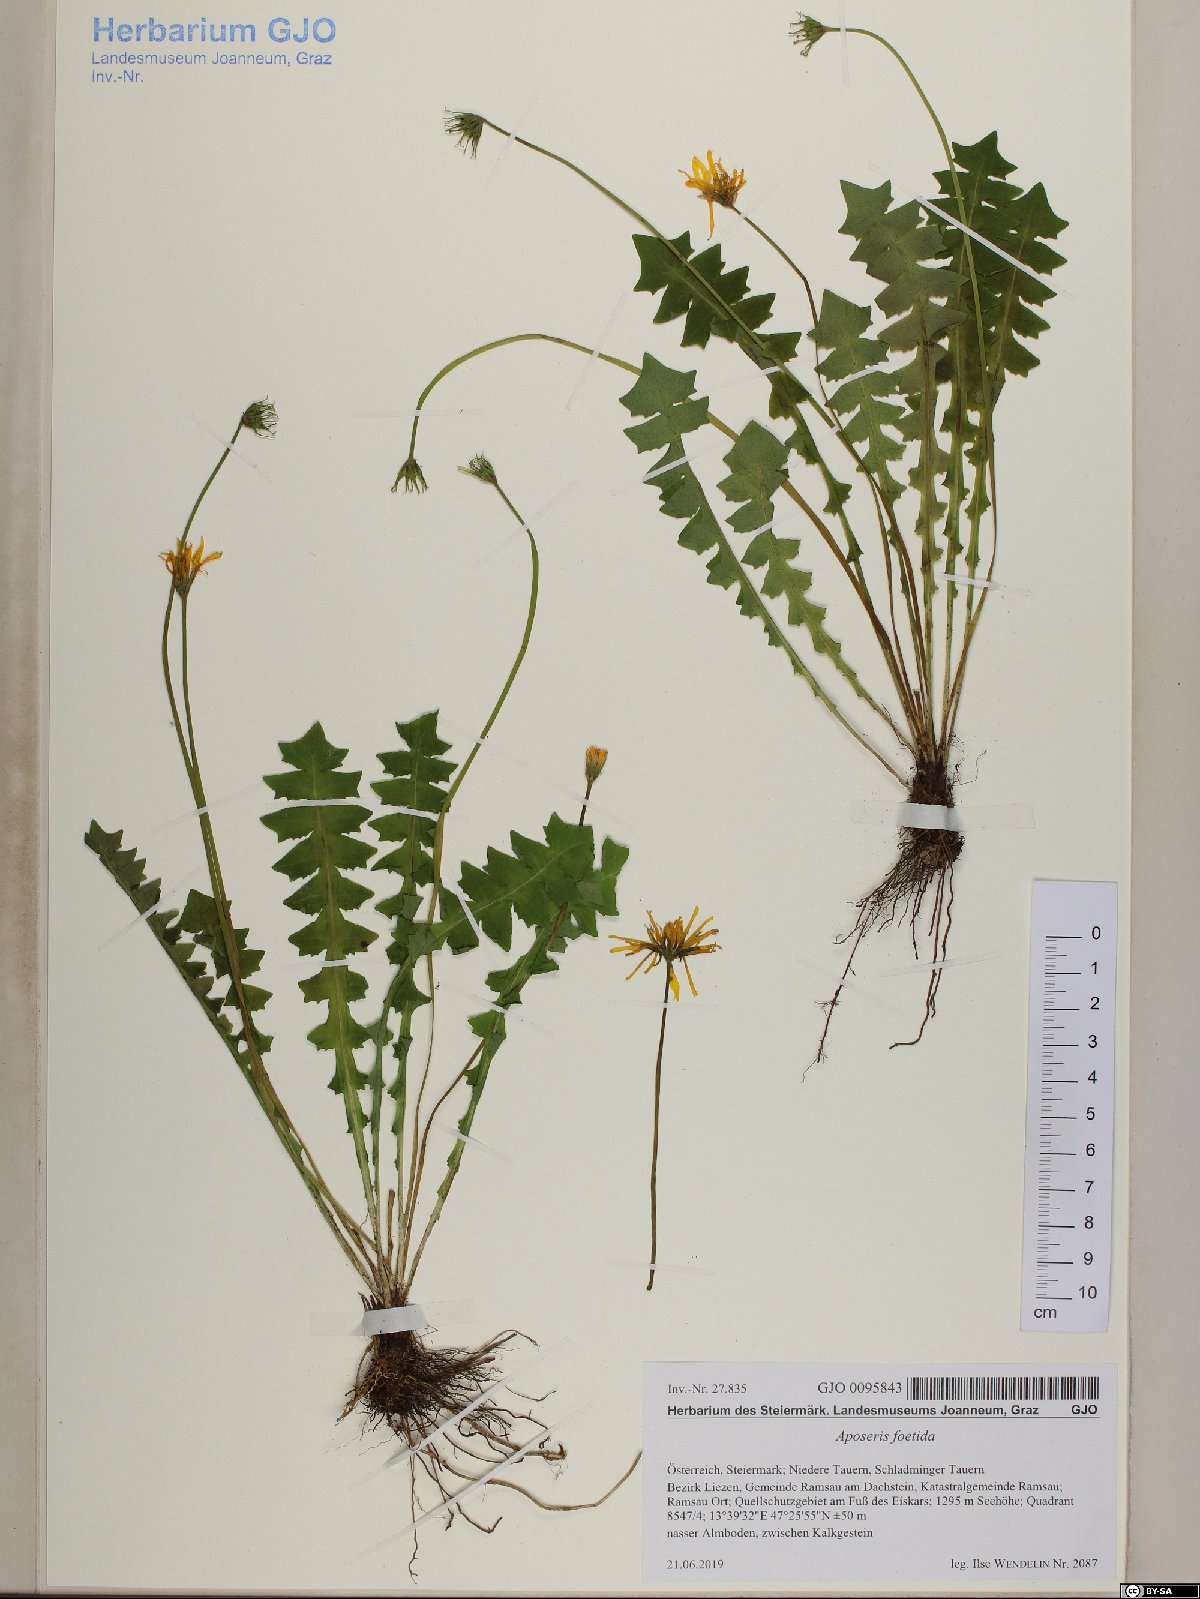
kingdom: Plantae
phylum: Tracheophyta
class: Magnoliopsida
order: Asterales
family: Asteraceae
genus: Aposeris
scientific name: Aposeris foetida
